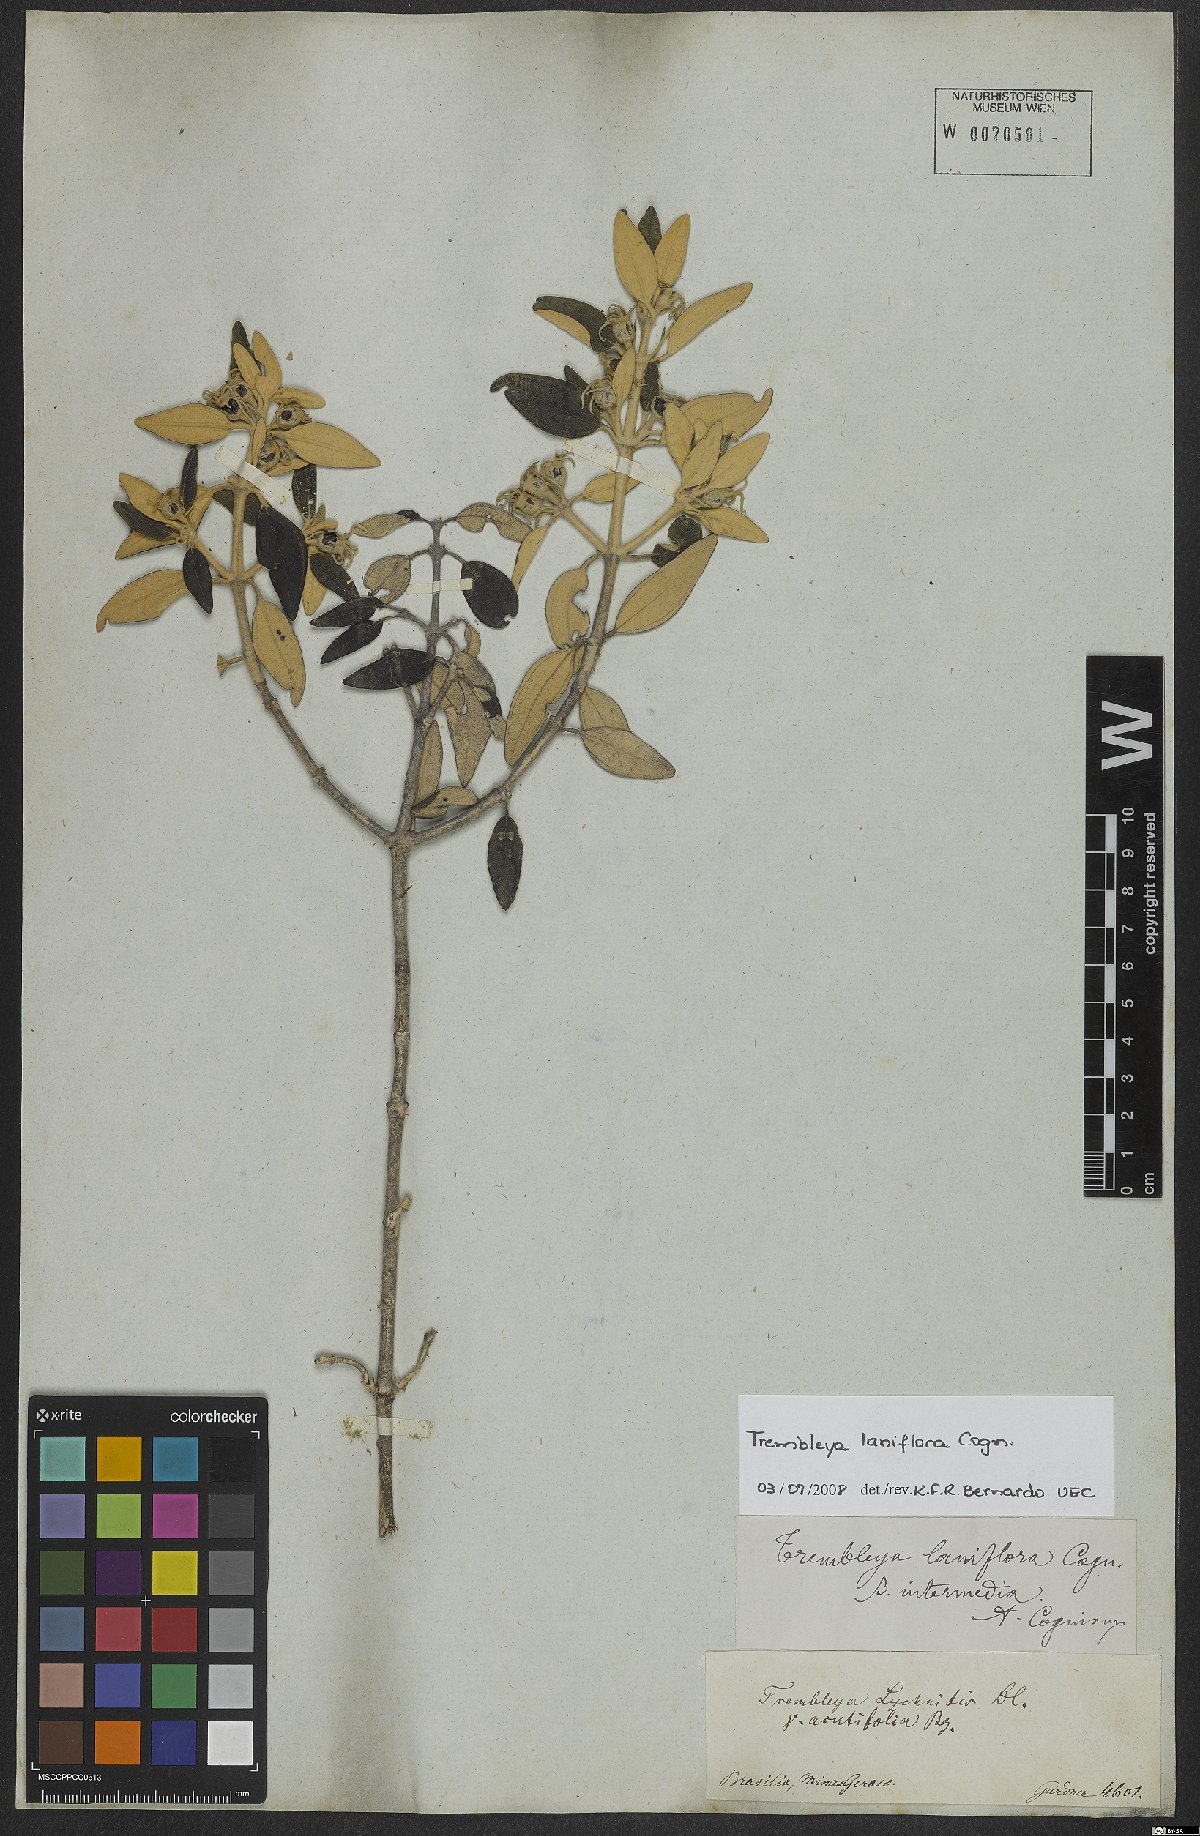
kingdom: Plantae
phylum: Tracheophyta
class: Magnoliopsida
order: Myrtales
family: Melastomataceae
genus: Microlicia
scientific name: Microlicia laniflora
